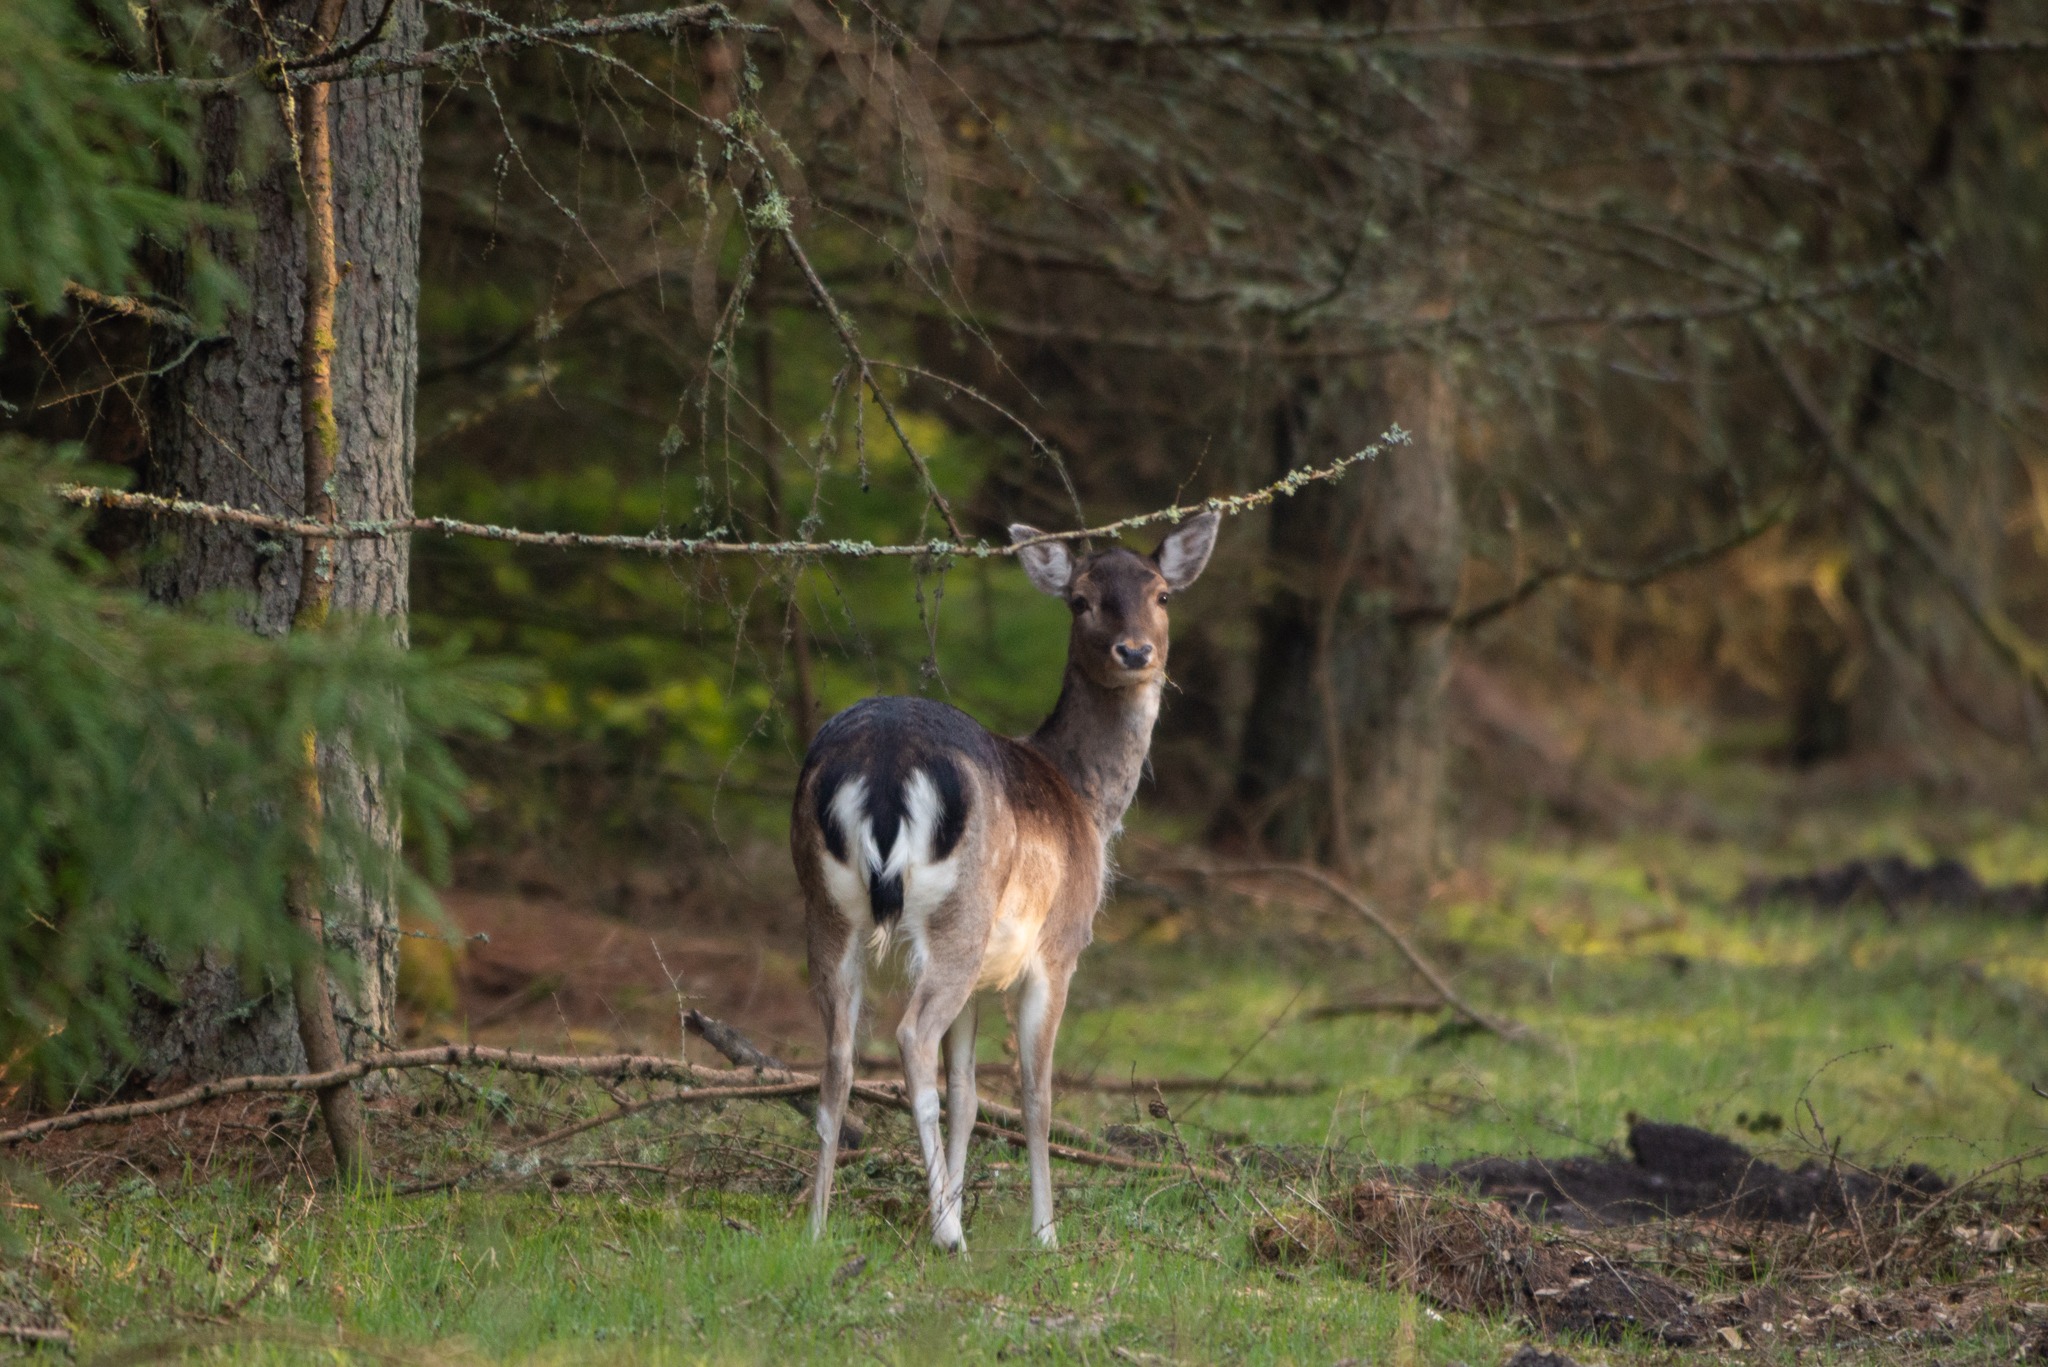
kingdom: Animalia
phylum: Chordata
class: Mammalia
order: Artiodactyla
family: Cervidae
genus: Dama
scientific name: Dama dama
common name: Dådyr
